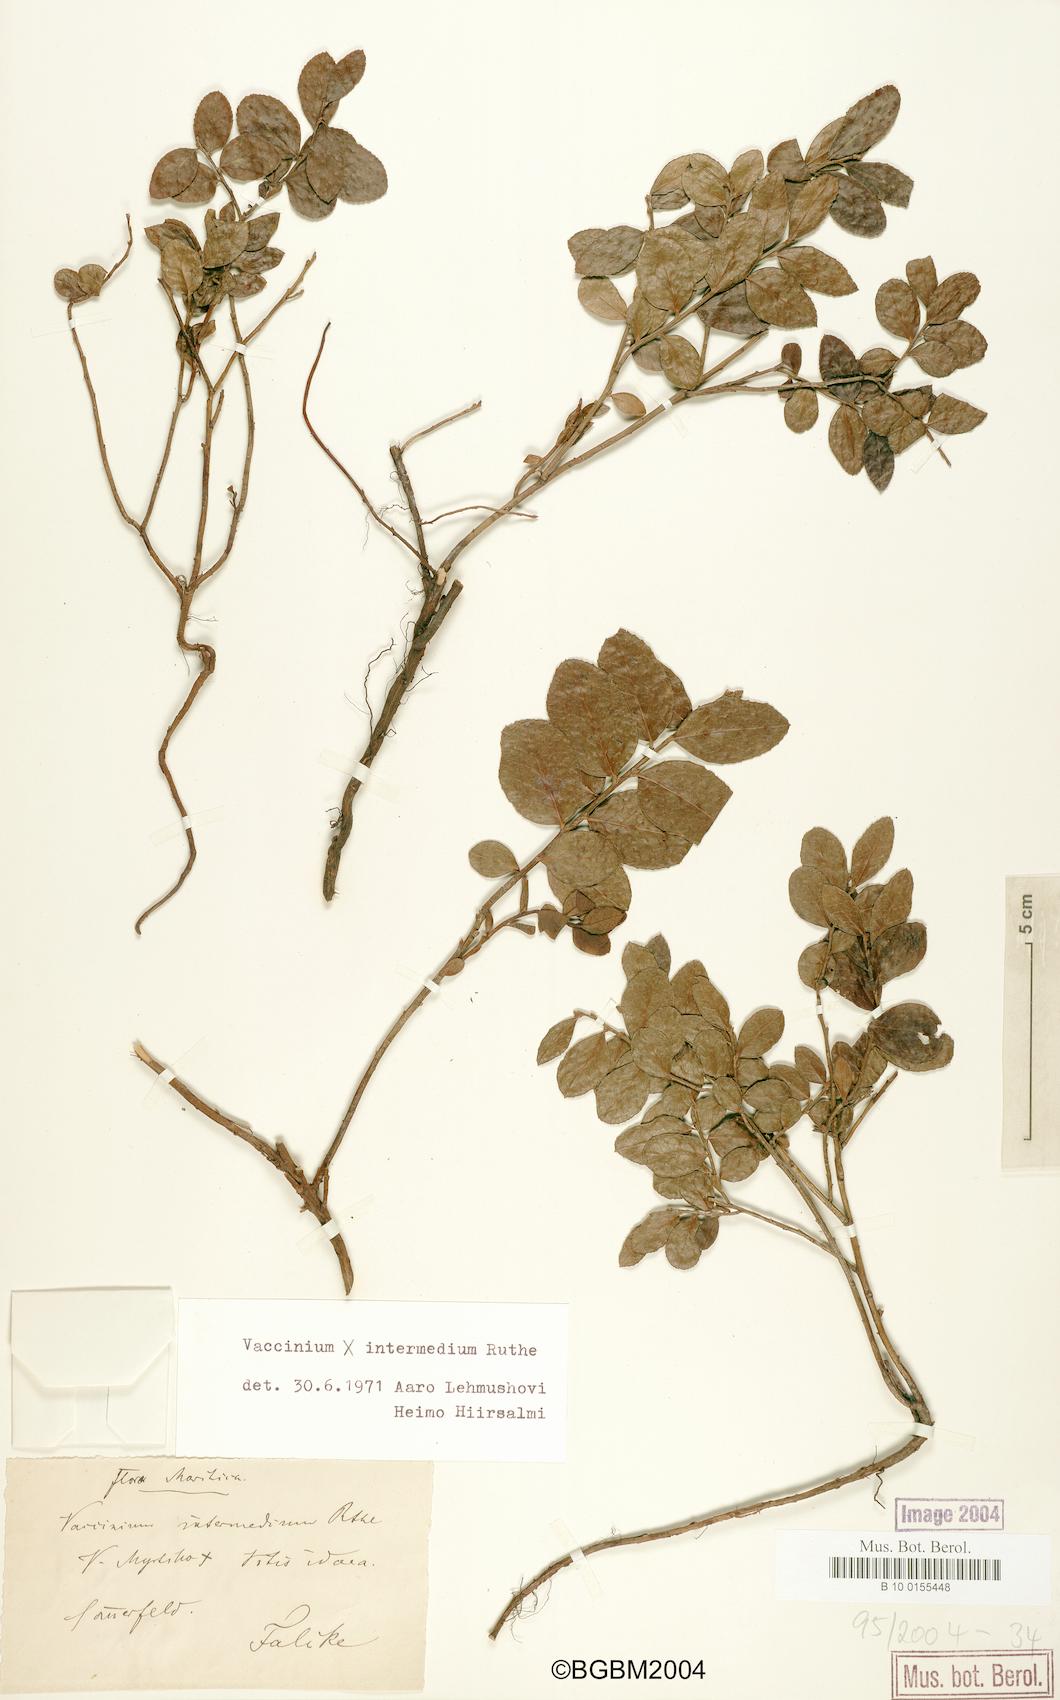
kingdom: Plantae
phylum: Tracheophyta
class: Magnoliopsida
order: Ericales
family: Ericaceae
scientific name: Ericaceae
